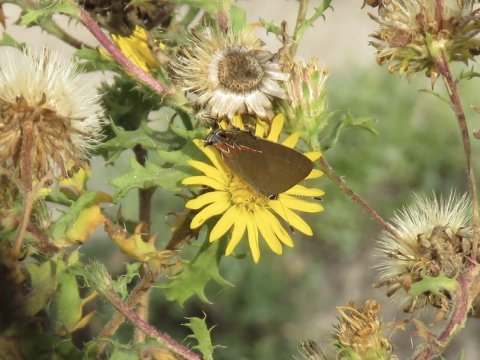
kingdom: Animalia
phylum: Arthropoda
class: Insecta
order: Lepidoptera
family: Lycaenidae
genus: Calycopis
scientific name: Calycopis isobeon
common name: Dusky-blue Groundstreak
